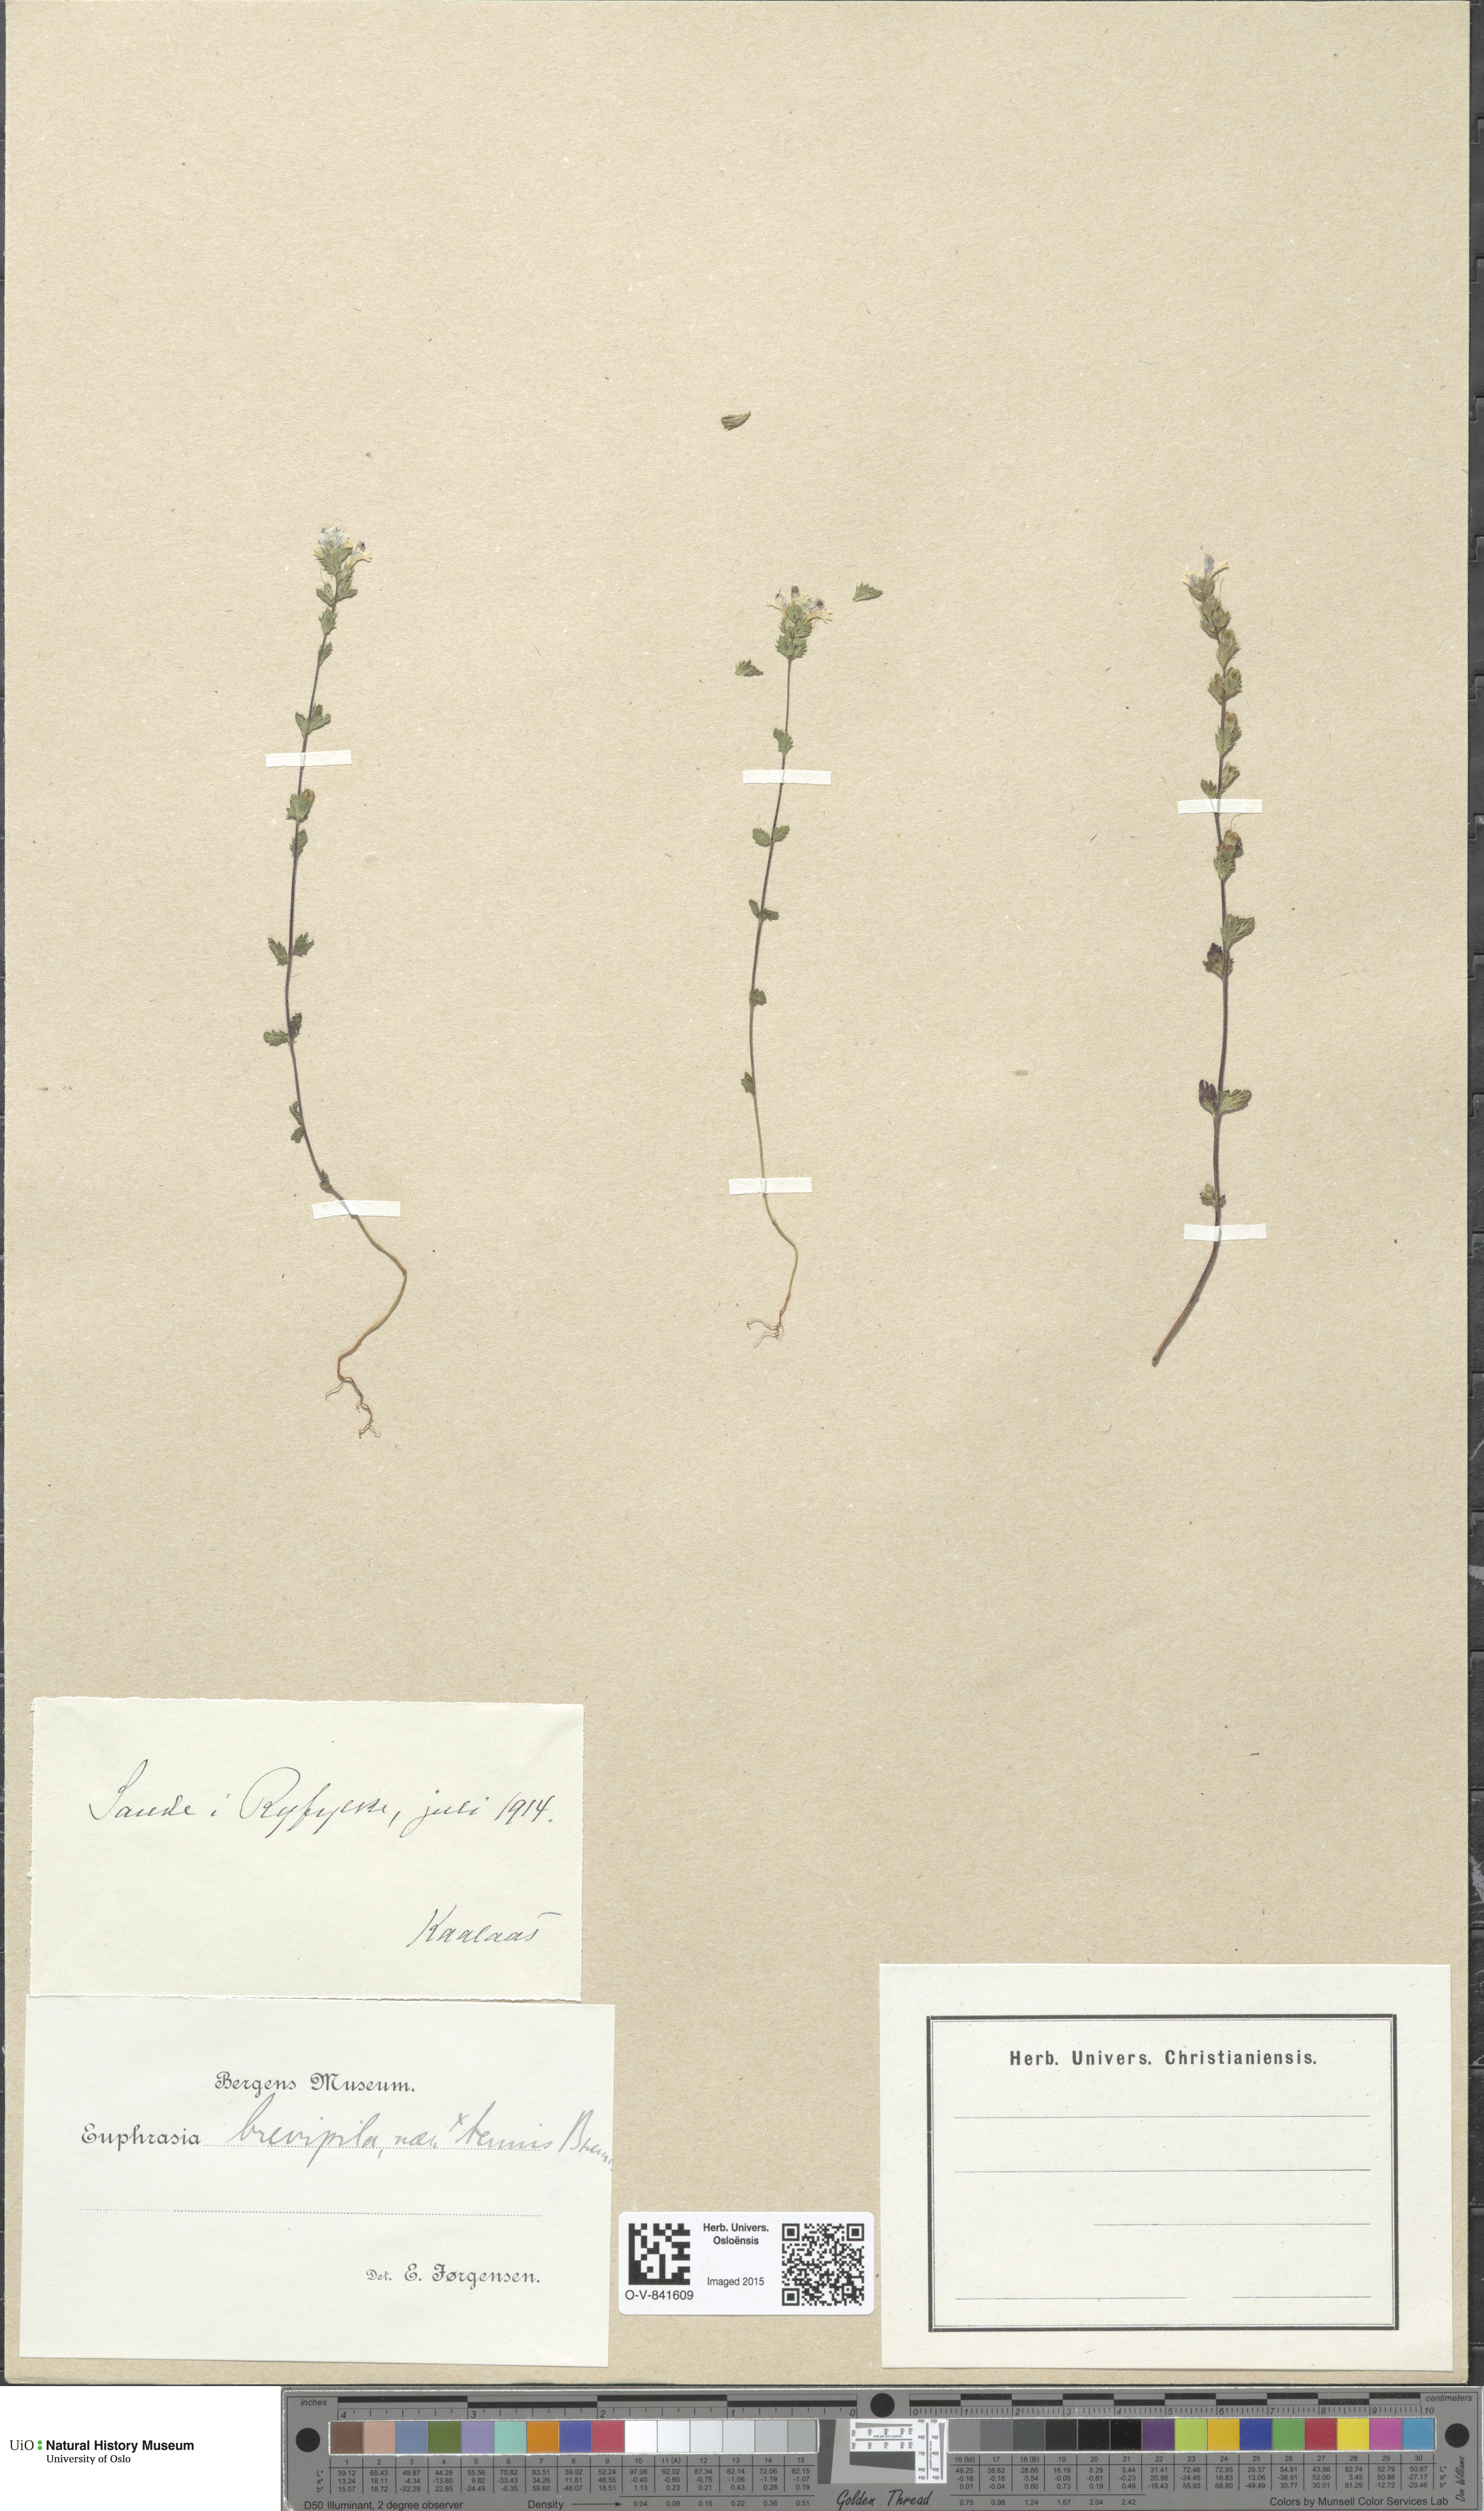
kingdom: Plantae
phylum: Tracheophyta
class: Magnoliopsida
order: Lamiales
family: Orobanchaceae
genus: Euphrasia
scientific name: Euphrasia vernalis
